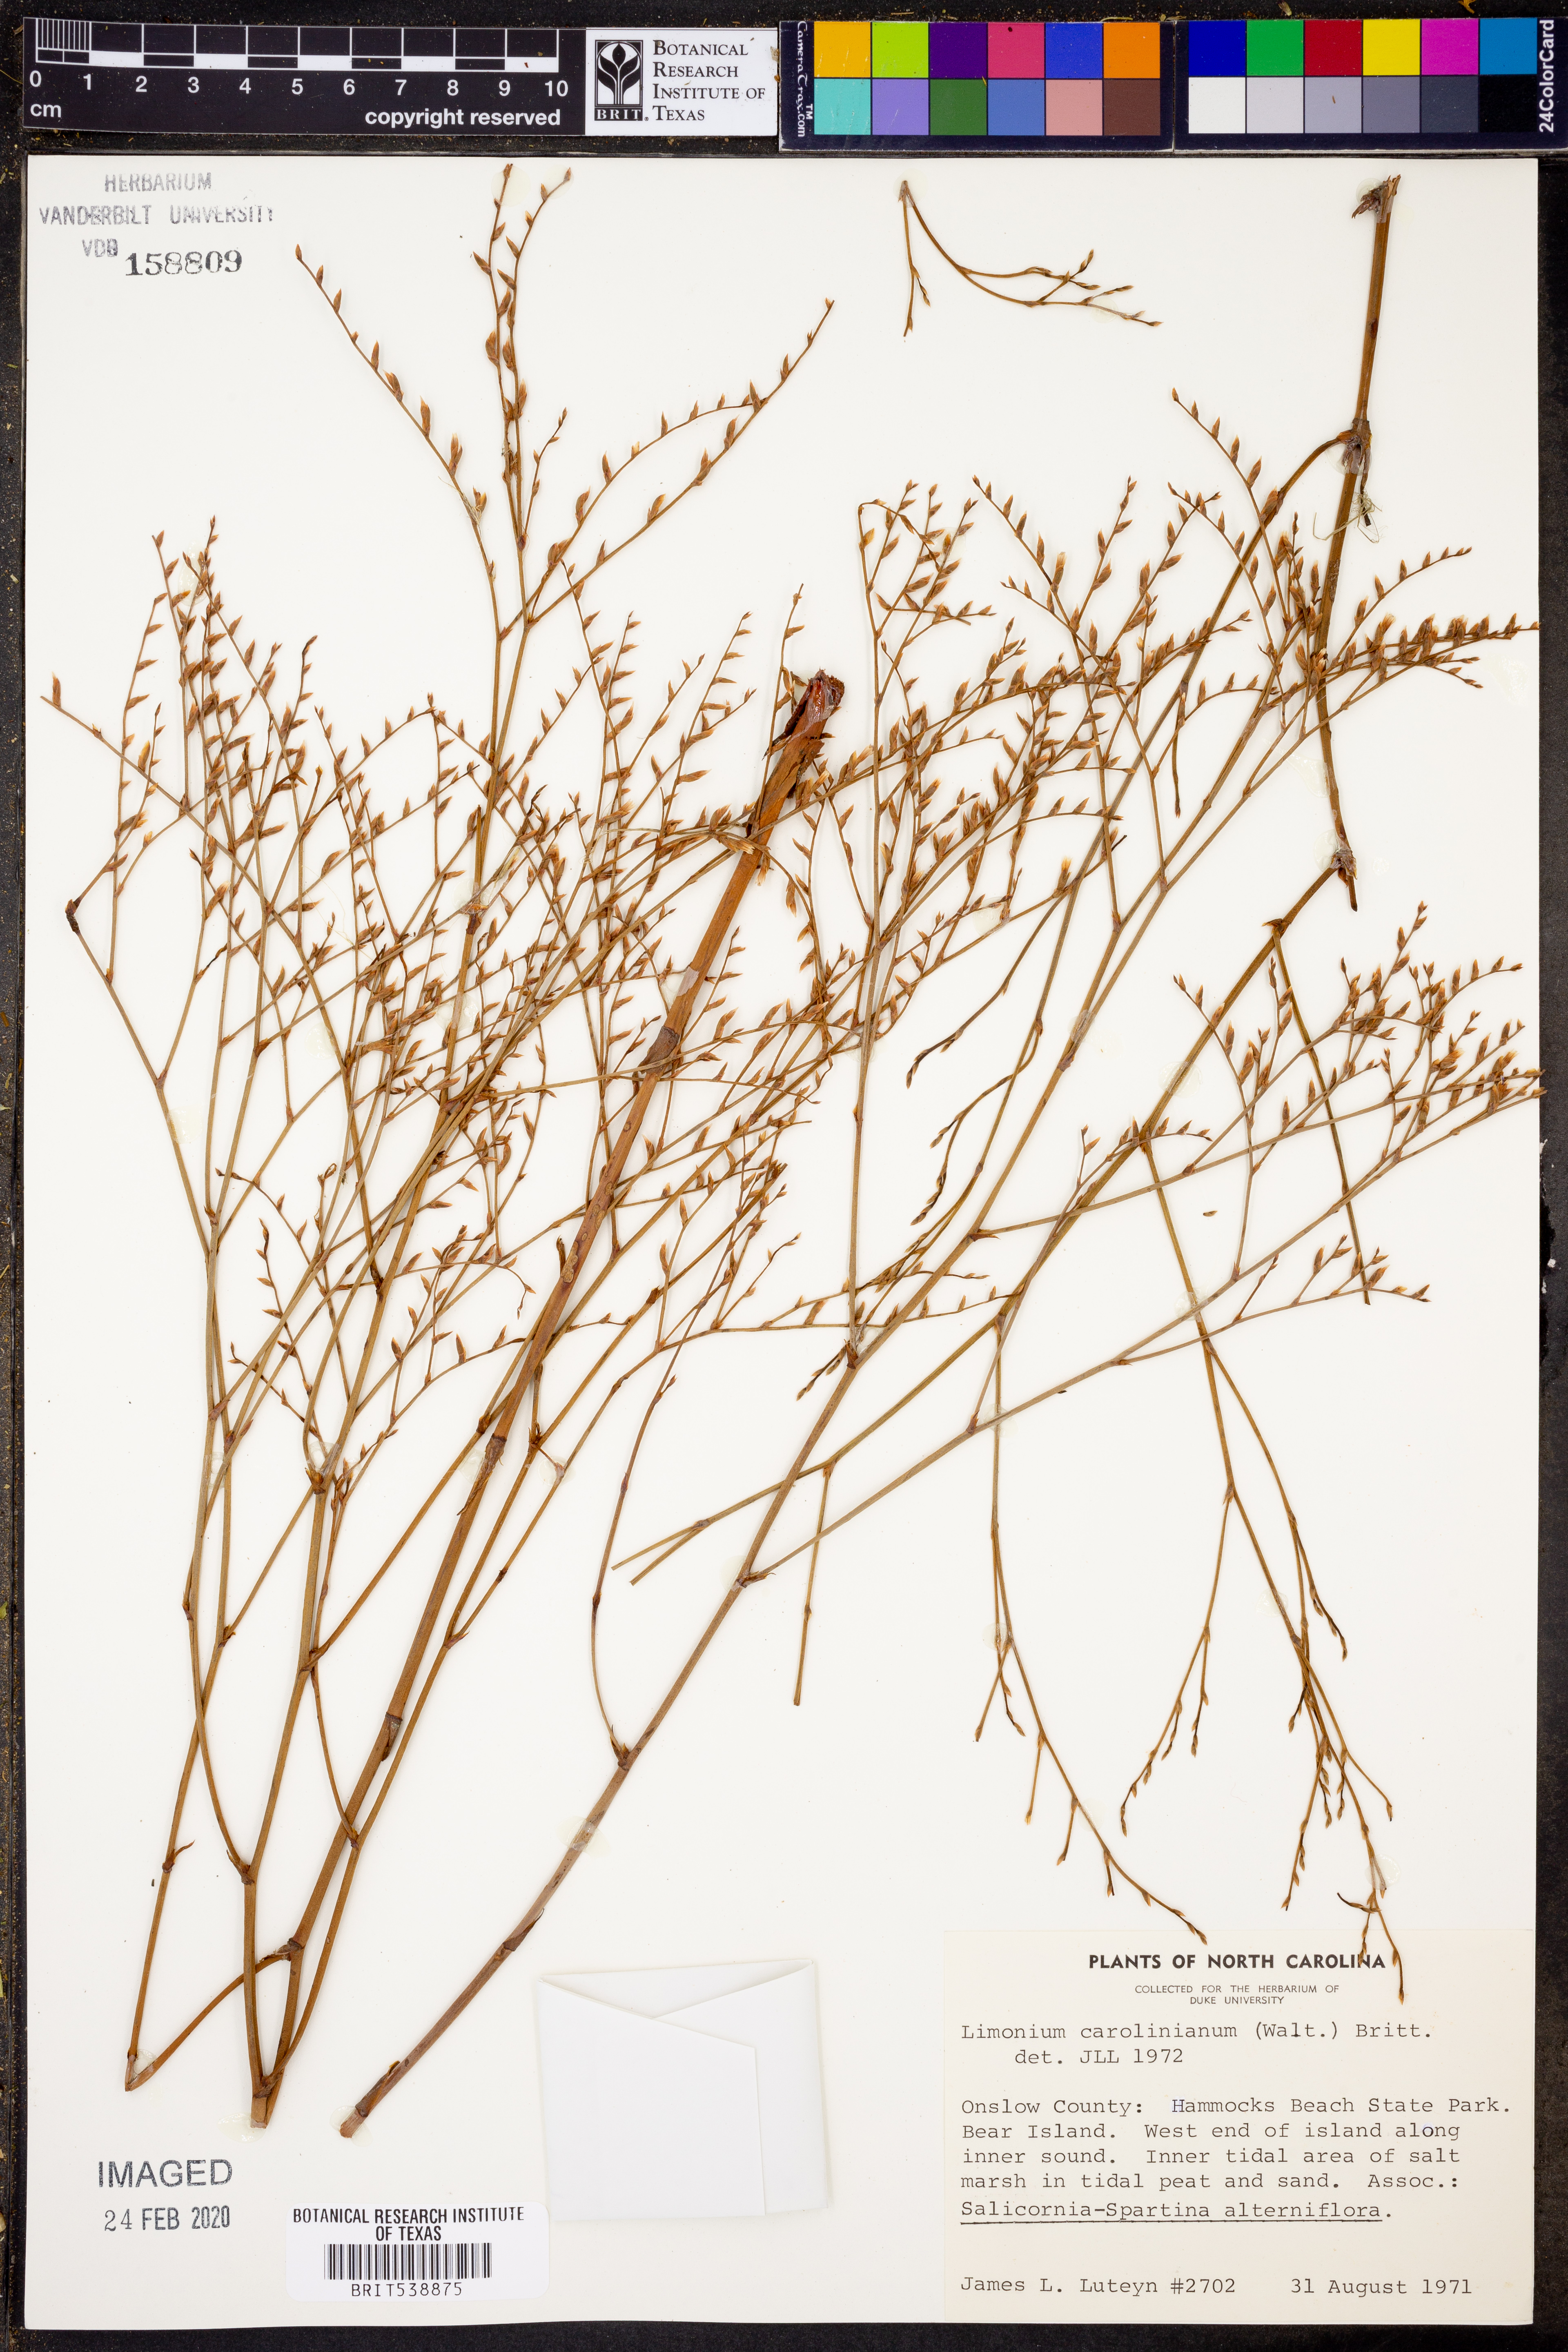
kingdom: Plantae
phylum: Tracheophyta
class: Magnoliopsida
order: Caryophyllales
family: Plumbaginaceae
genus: Limonium
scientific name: Limonium carolinianum
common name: Carolina sea lavender
